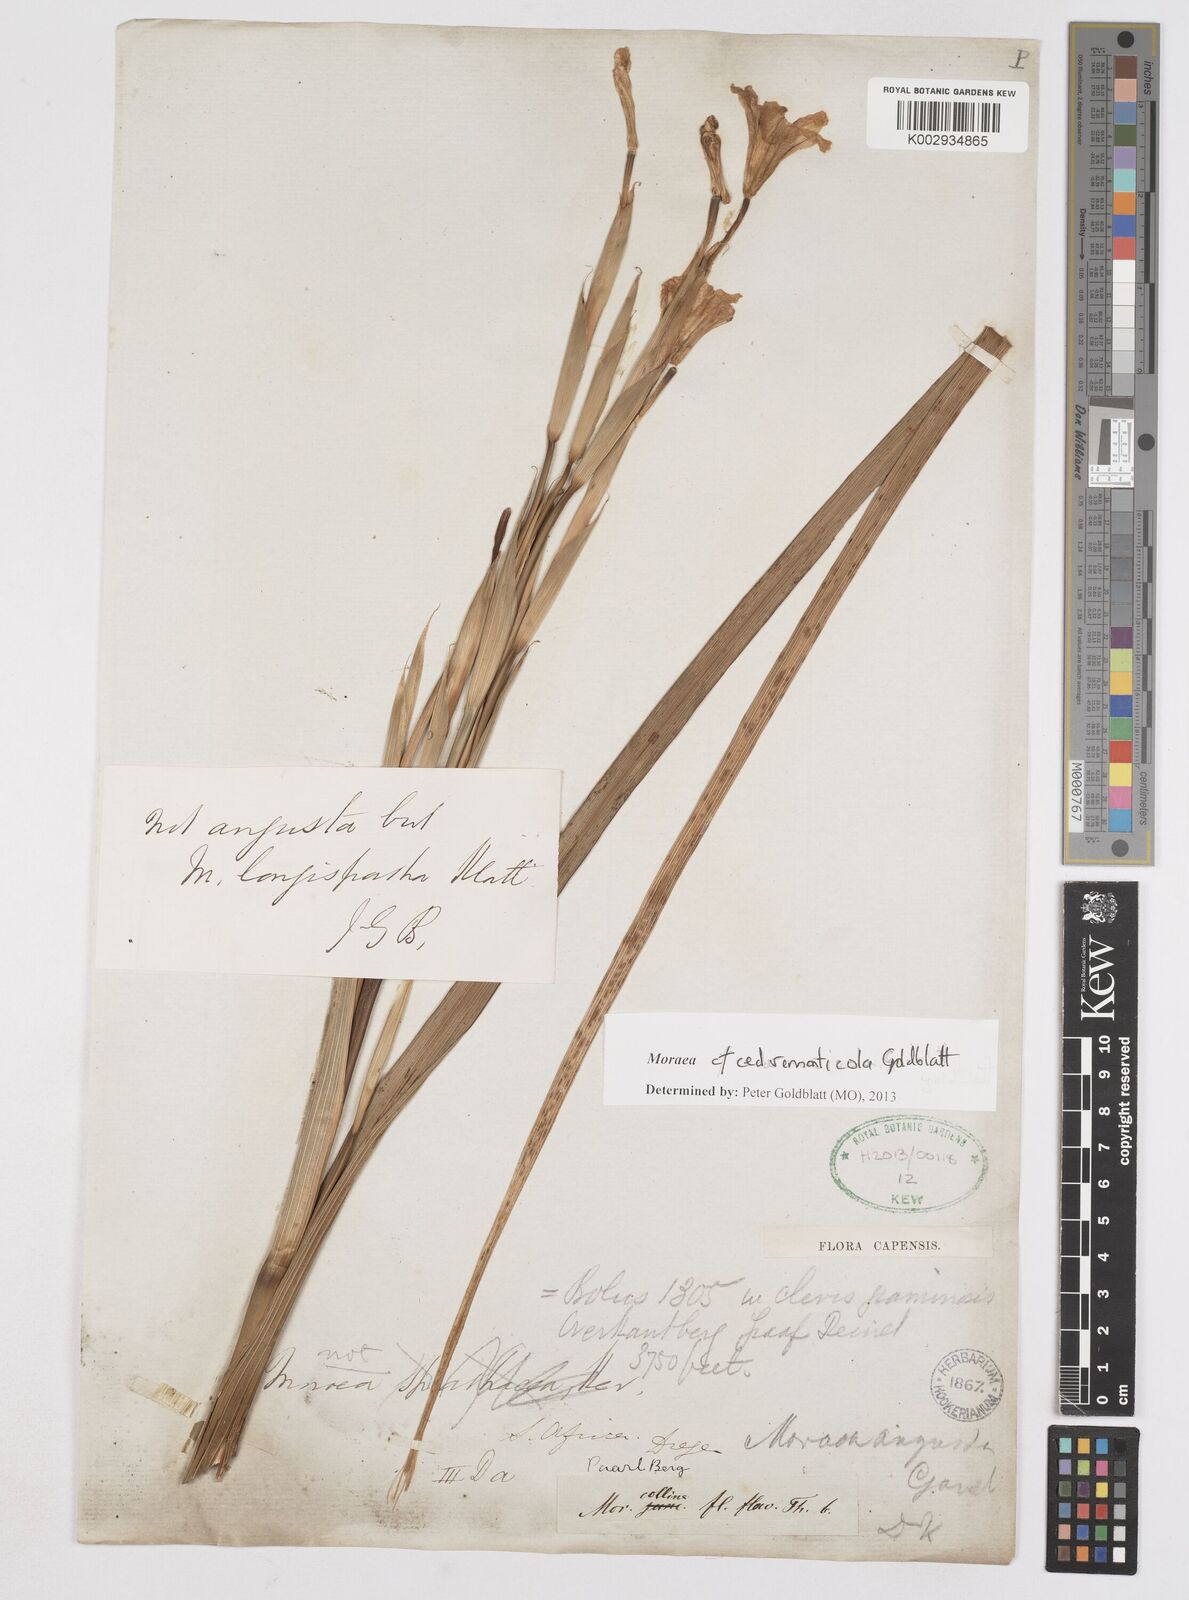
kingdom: Plantae
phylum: Tracheophyta
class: Liliopsida
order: Asparagales
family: Iridaceae
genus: Moraea
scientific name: Moraea cedarmonticola
